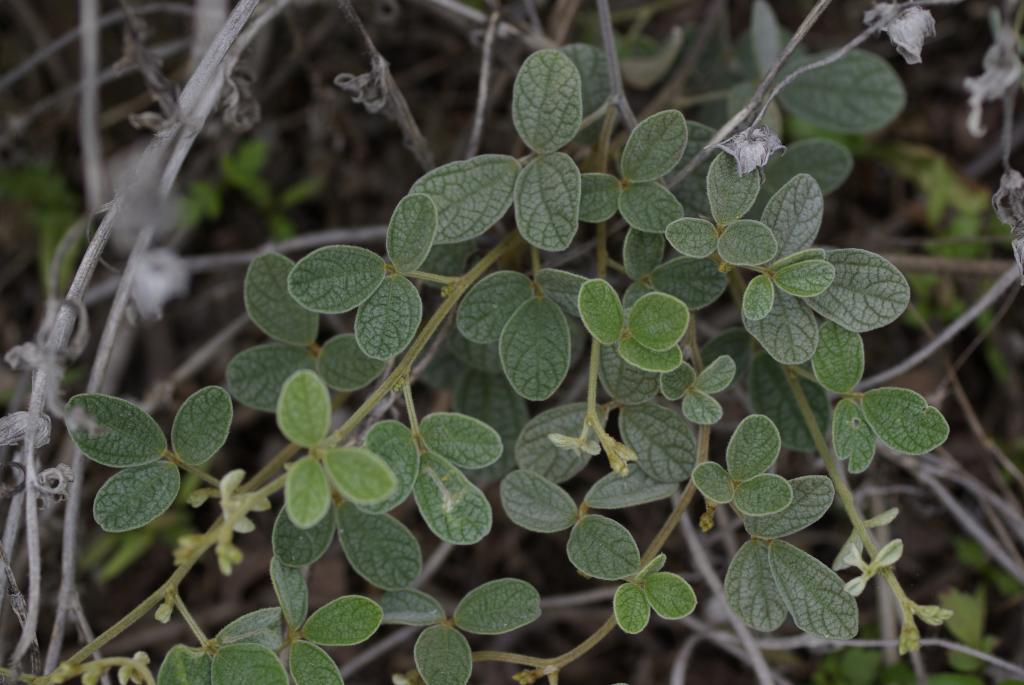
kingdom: Plantae
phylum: Tracheophyta
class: Magnoliopsida
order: Fabales
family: Fabaceae
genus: Cajanus
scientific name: Cajanus scarabaeoides
